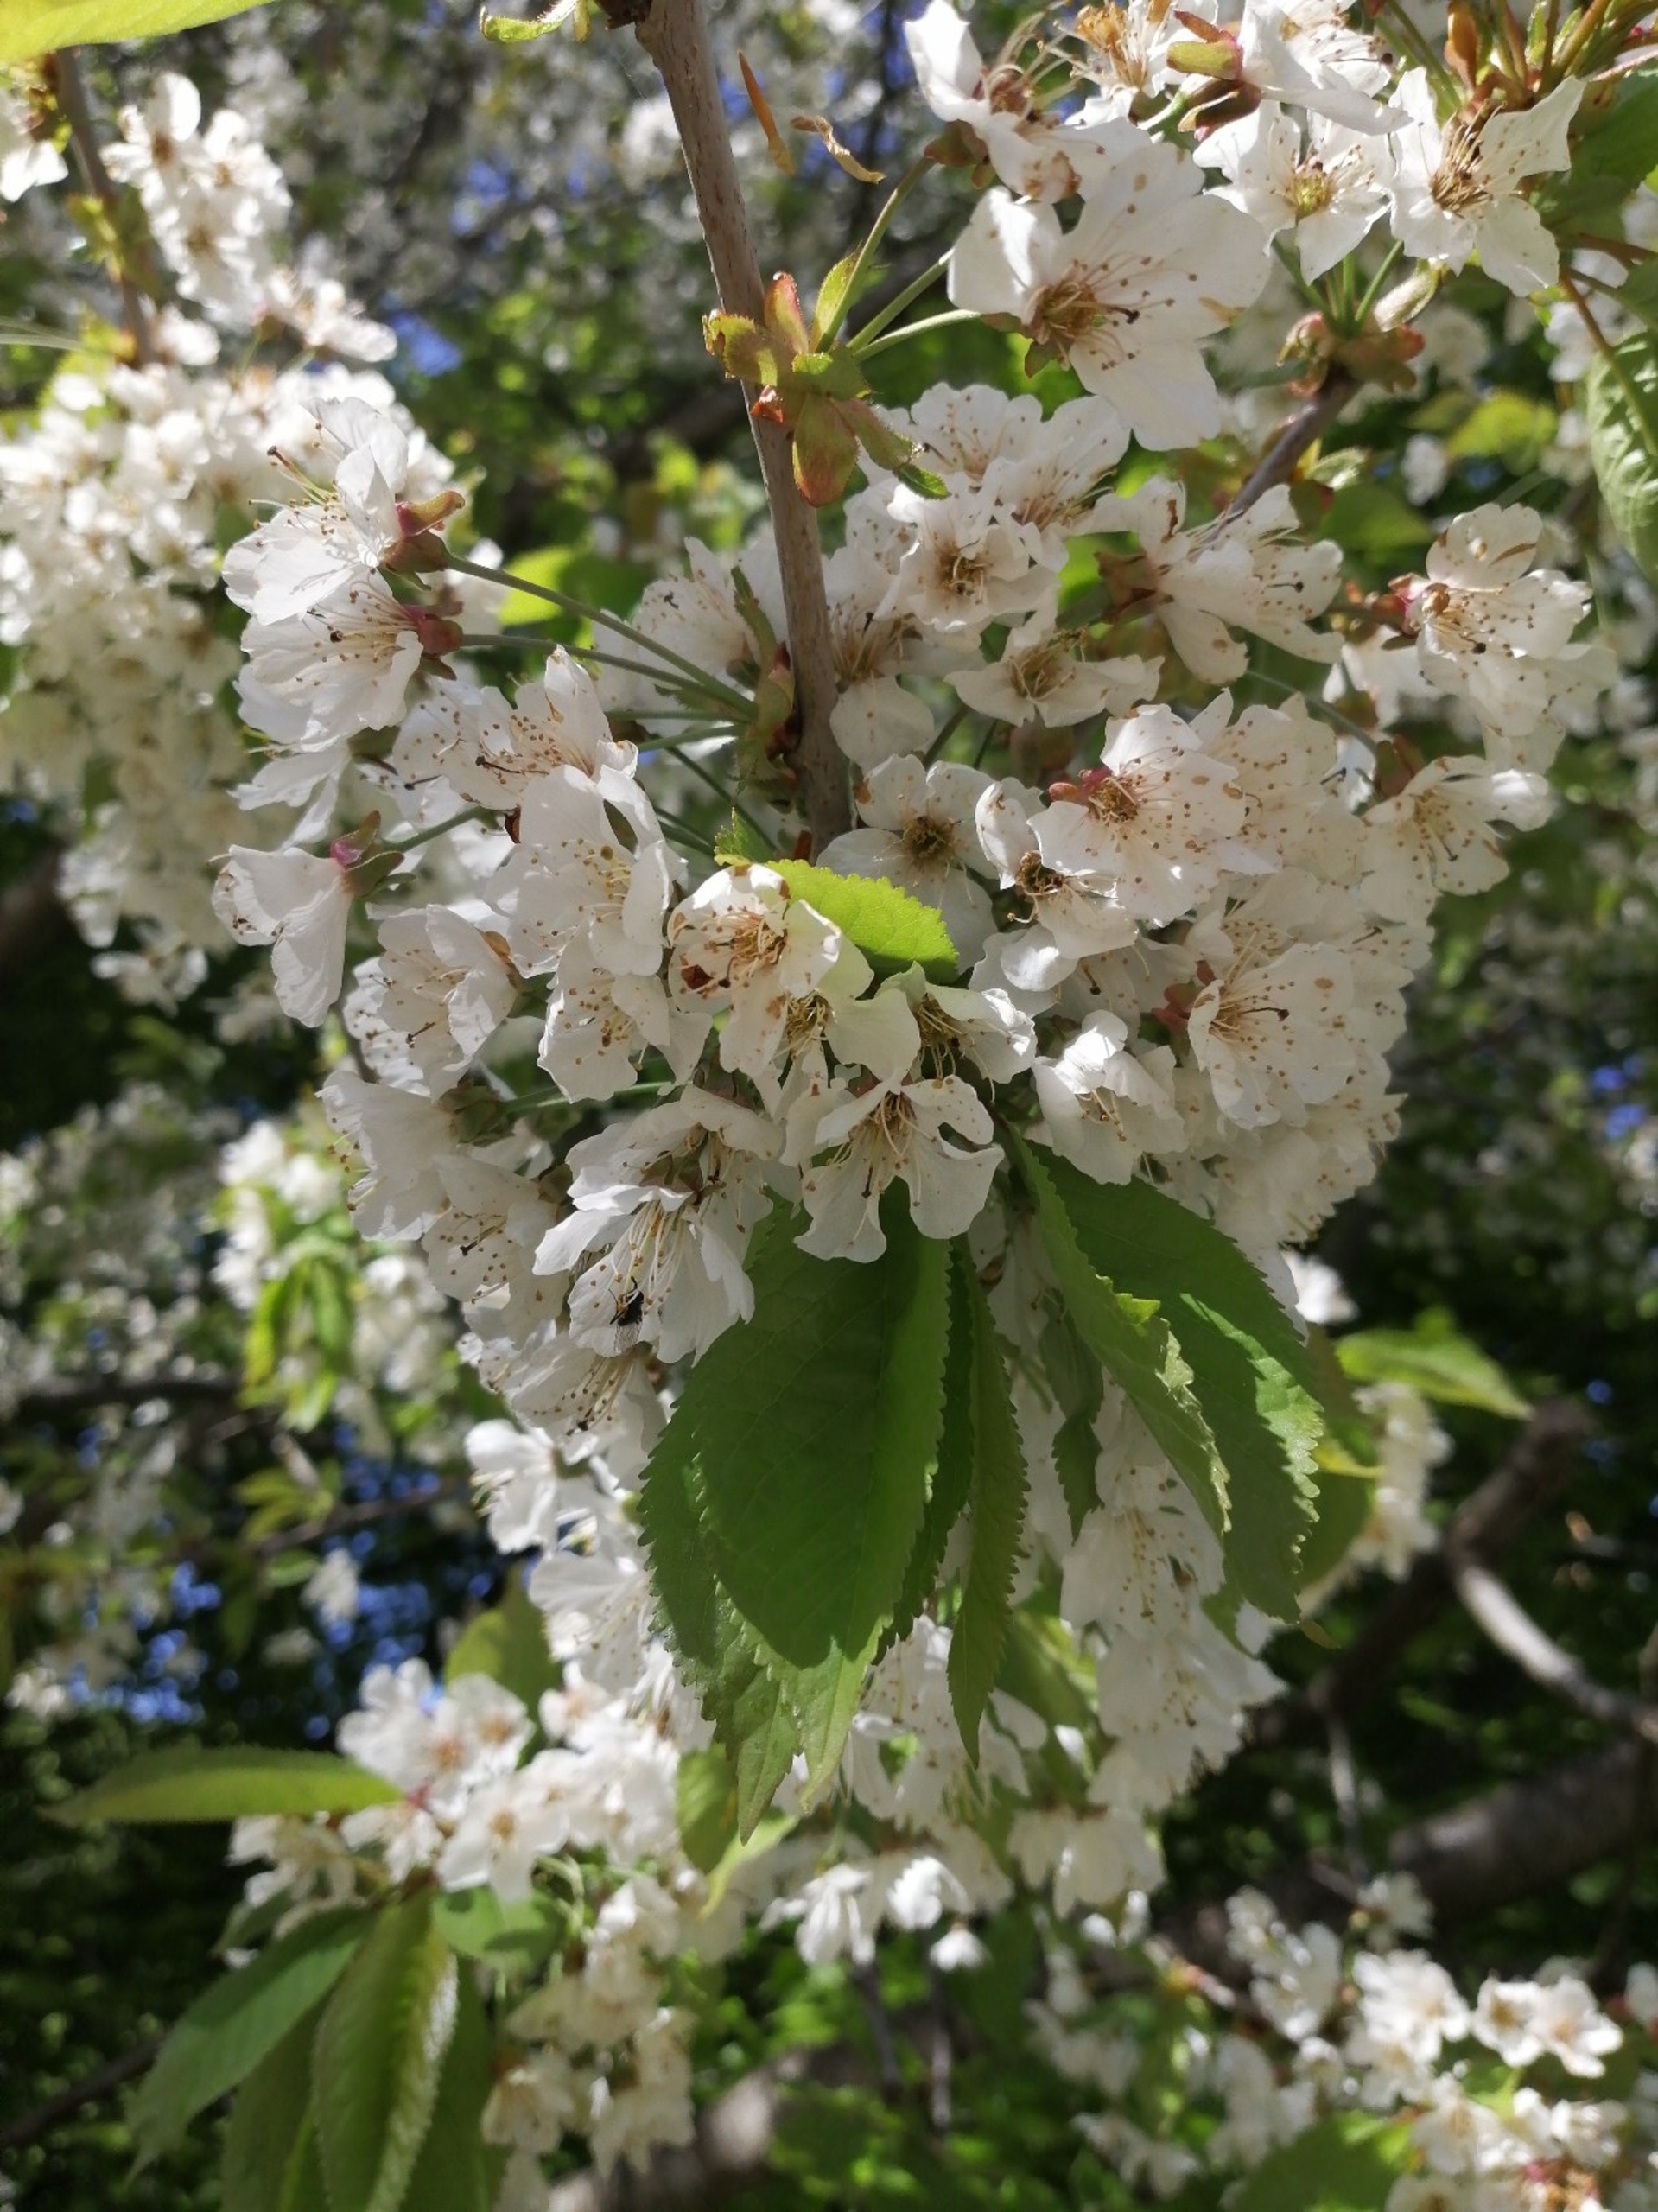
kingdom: Plantae
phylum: Tracheophyta
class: Magnoliopsida
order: Rosales
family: Rosaceae
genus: Prunus
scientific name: Prunus avium
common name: Fugle-kirsebær
